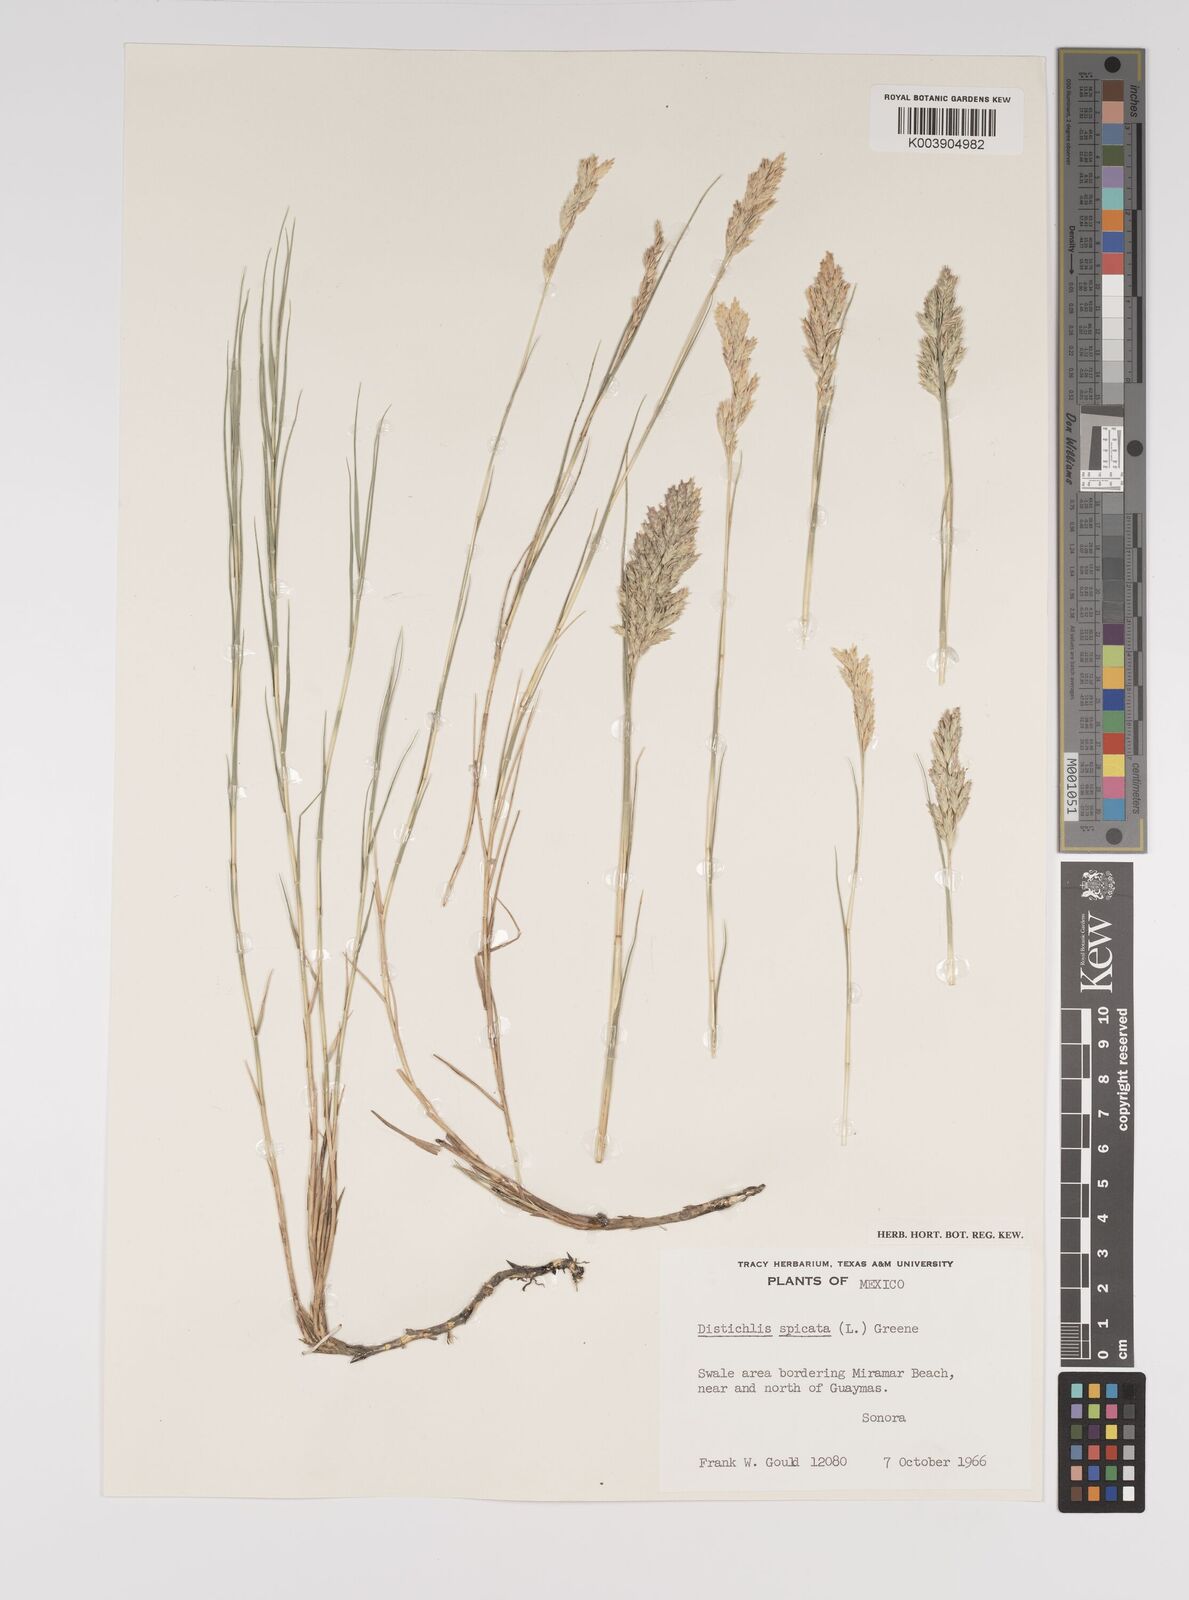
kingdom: Plantae
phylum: Tracheophyta
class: Liliopsida
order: Poales
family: Poaceae
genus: Distichlis
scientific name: Distichlis spicata
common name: Saltgrass
